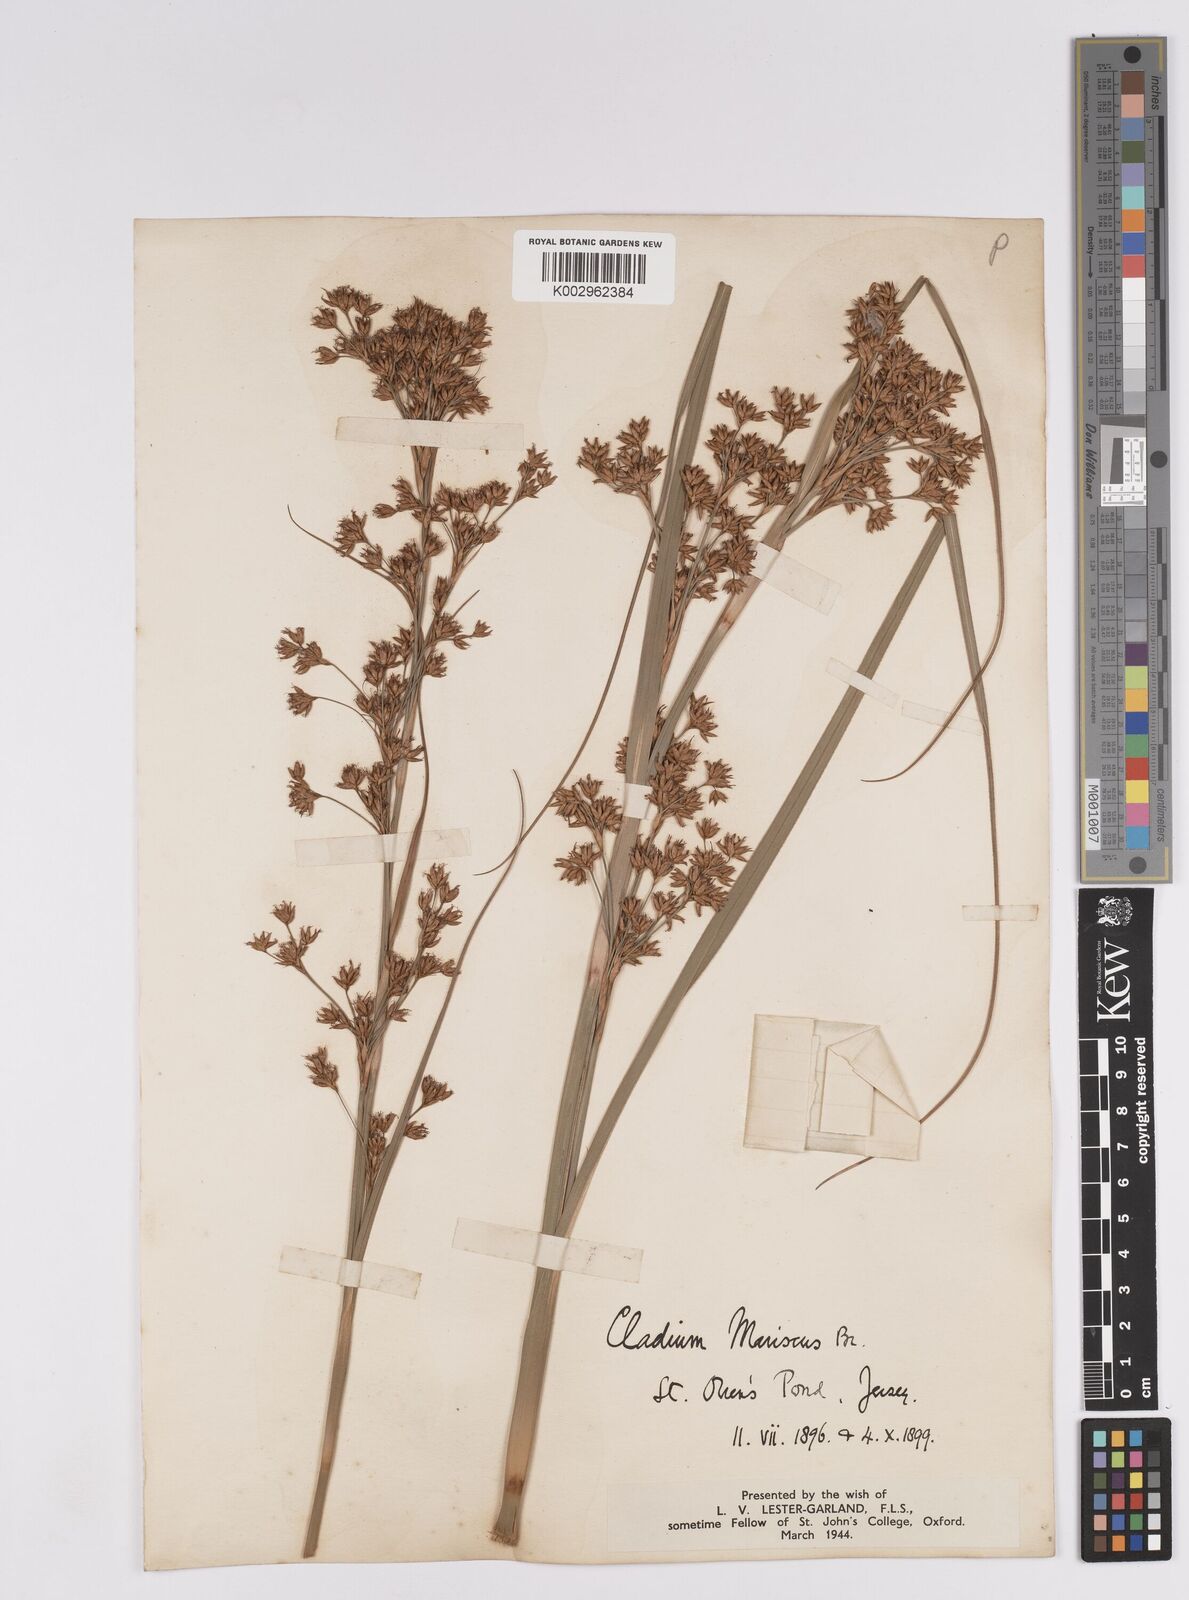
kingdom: Plantae
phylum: Tracheophyta
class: Liliopsida
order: Poales
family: Cyperaceae
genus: Cladium
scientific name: Cladium mariscus
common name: Great fen-sedge
